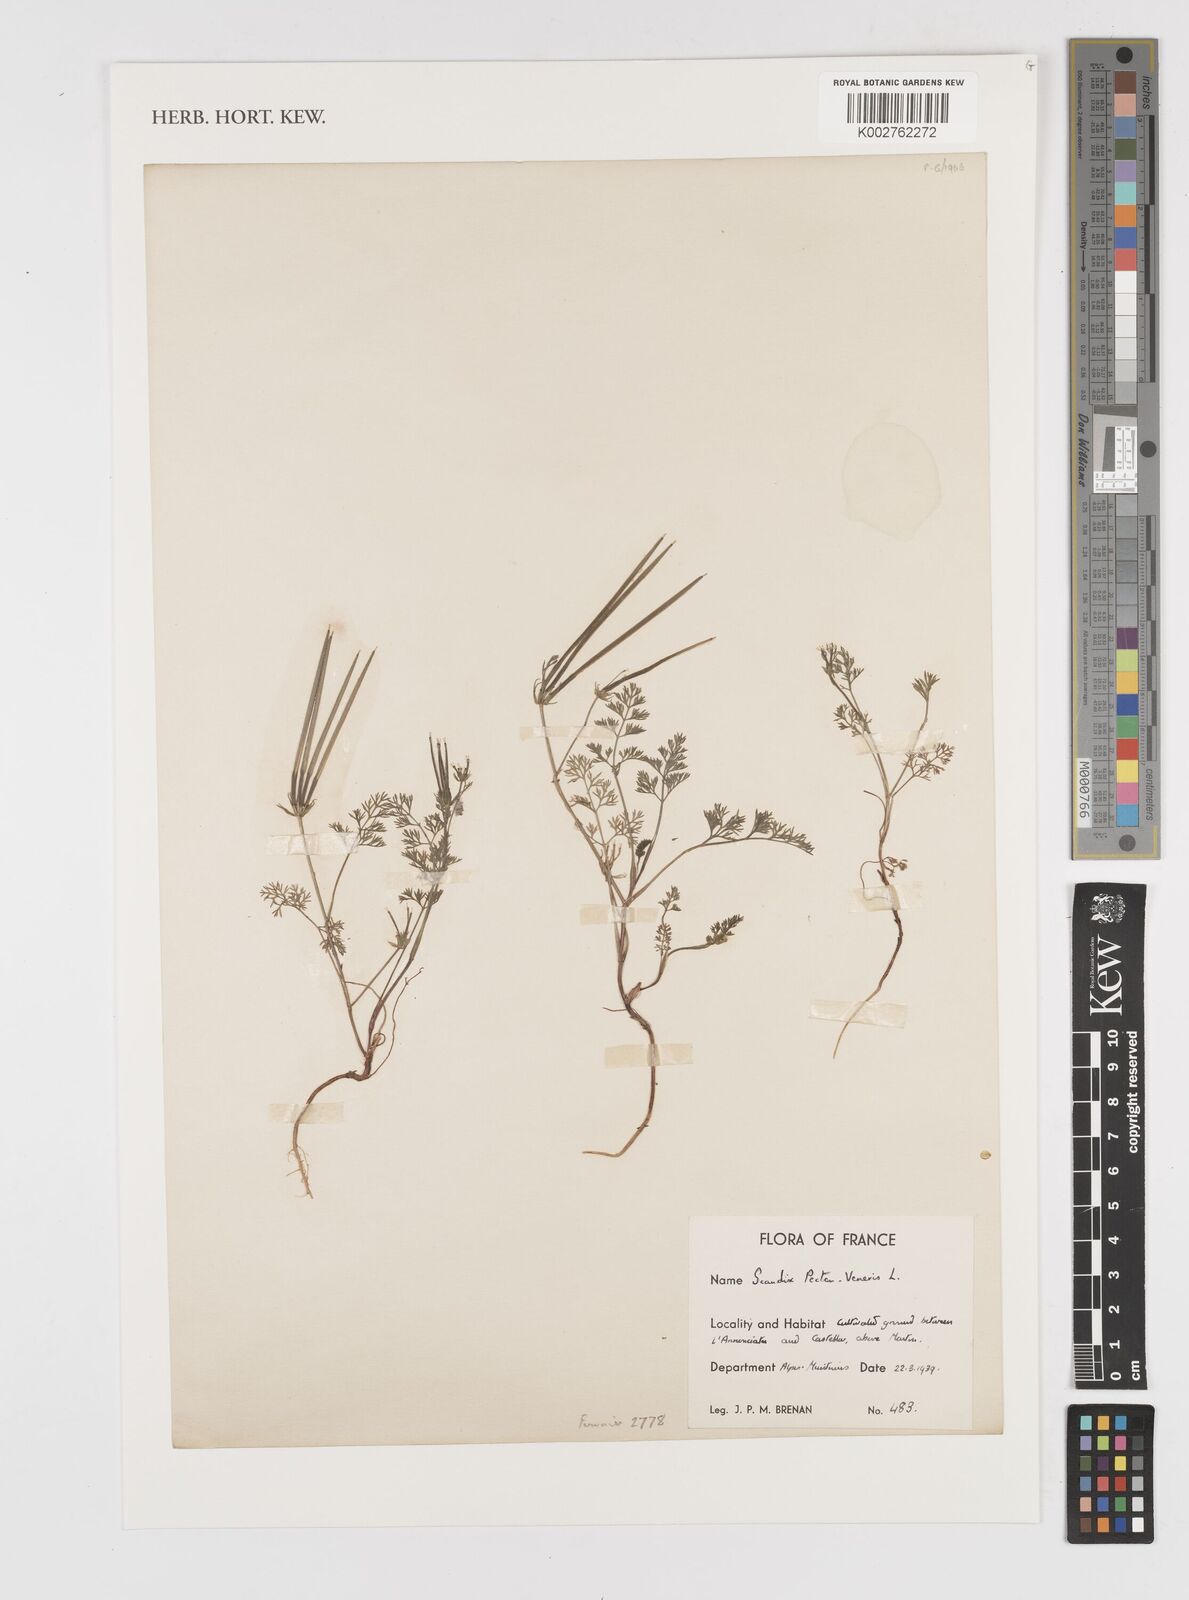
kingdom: Plantae
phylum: Tracheophyta
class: Magnoliopsida
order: Apiales
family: Apiaceae
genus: Scandix
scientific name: Scandix pecten-veneris
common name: Shepherd's-needle
